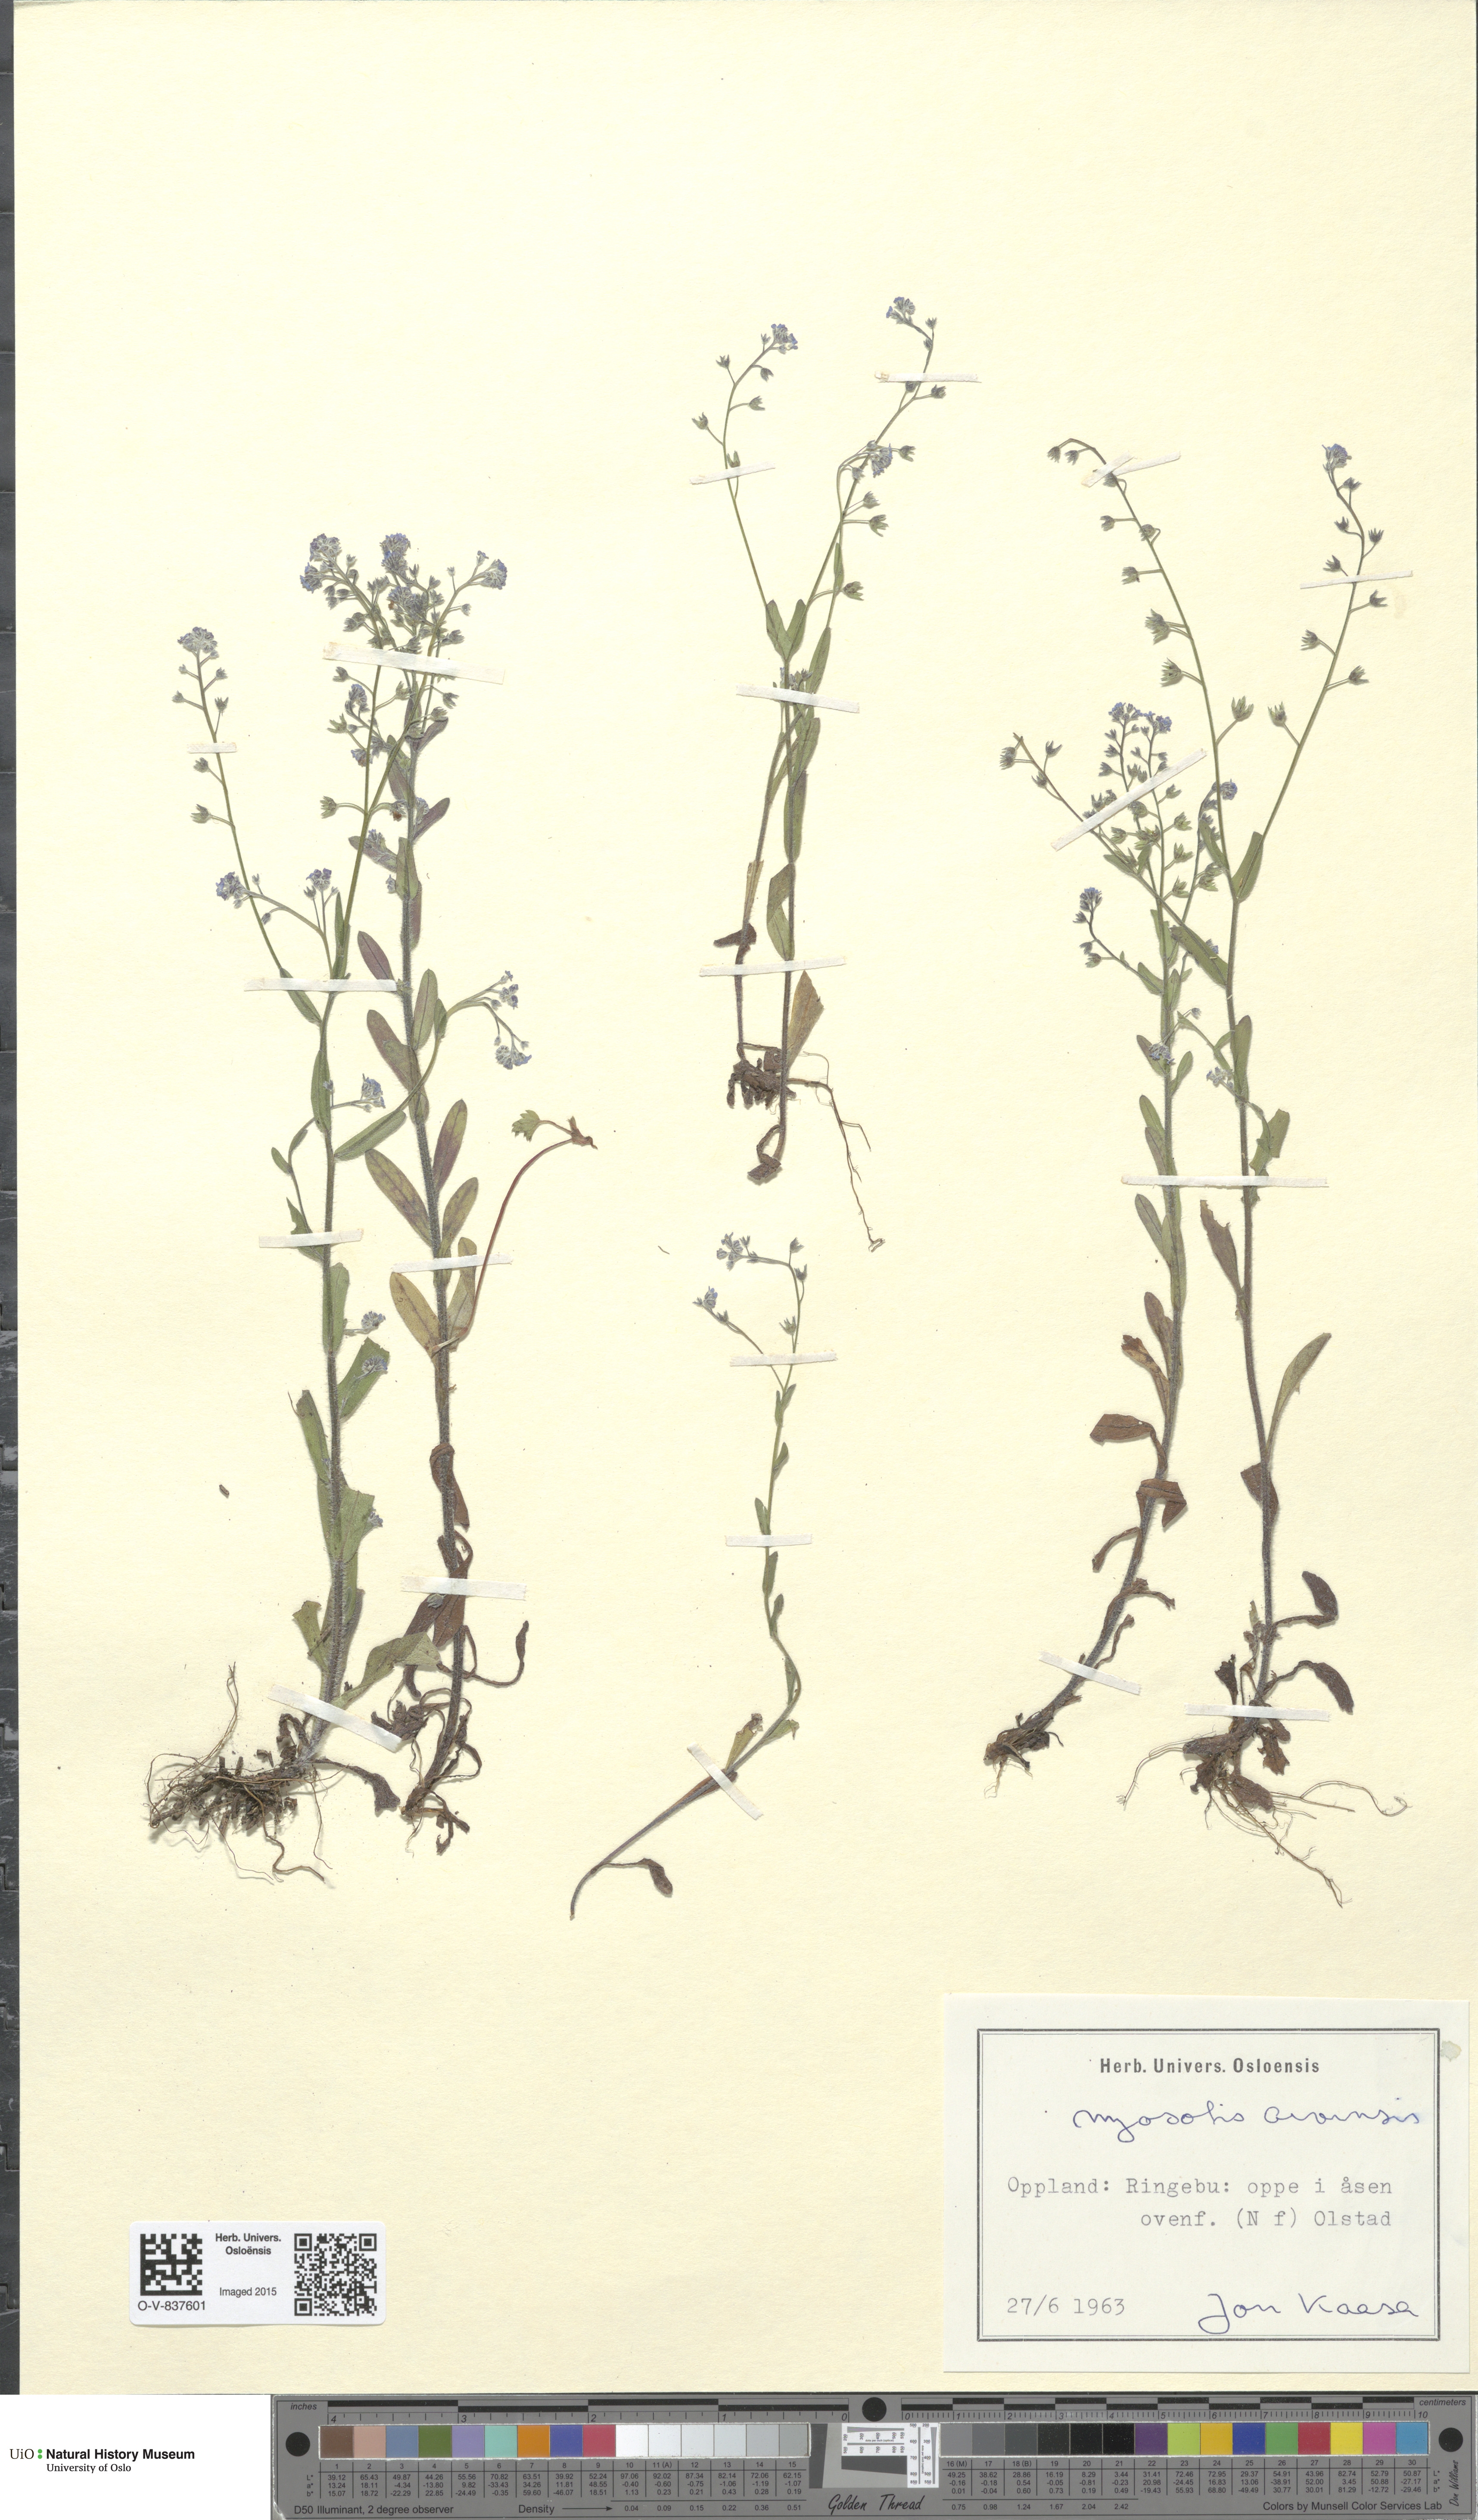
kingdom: Plantae
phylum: Tracheophyta
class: Magnoliopsida
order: Boraginales
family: Boraginaceae
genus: Myosotis
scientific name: Myosotis arvensis
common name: Field forget-me-not
